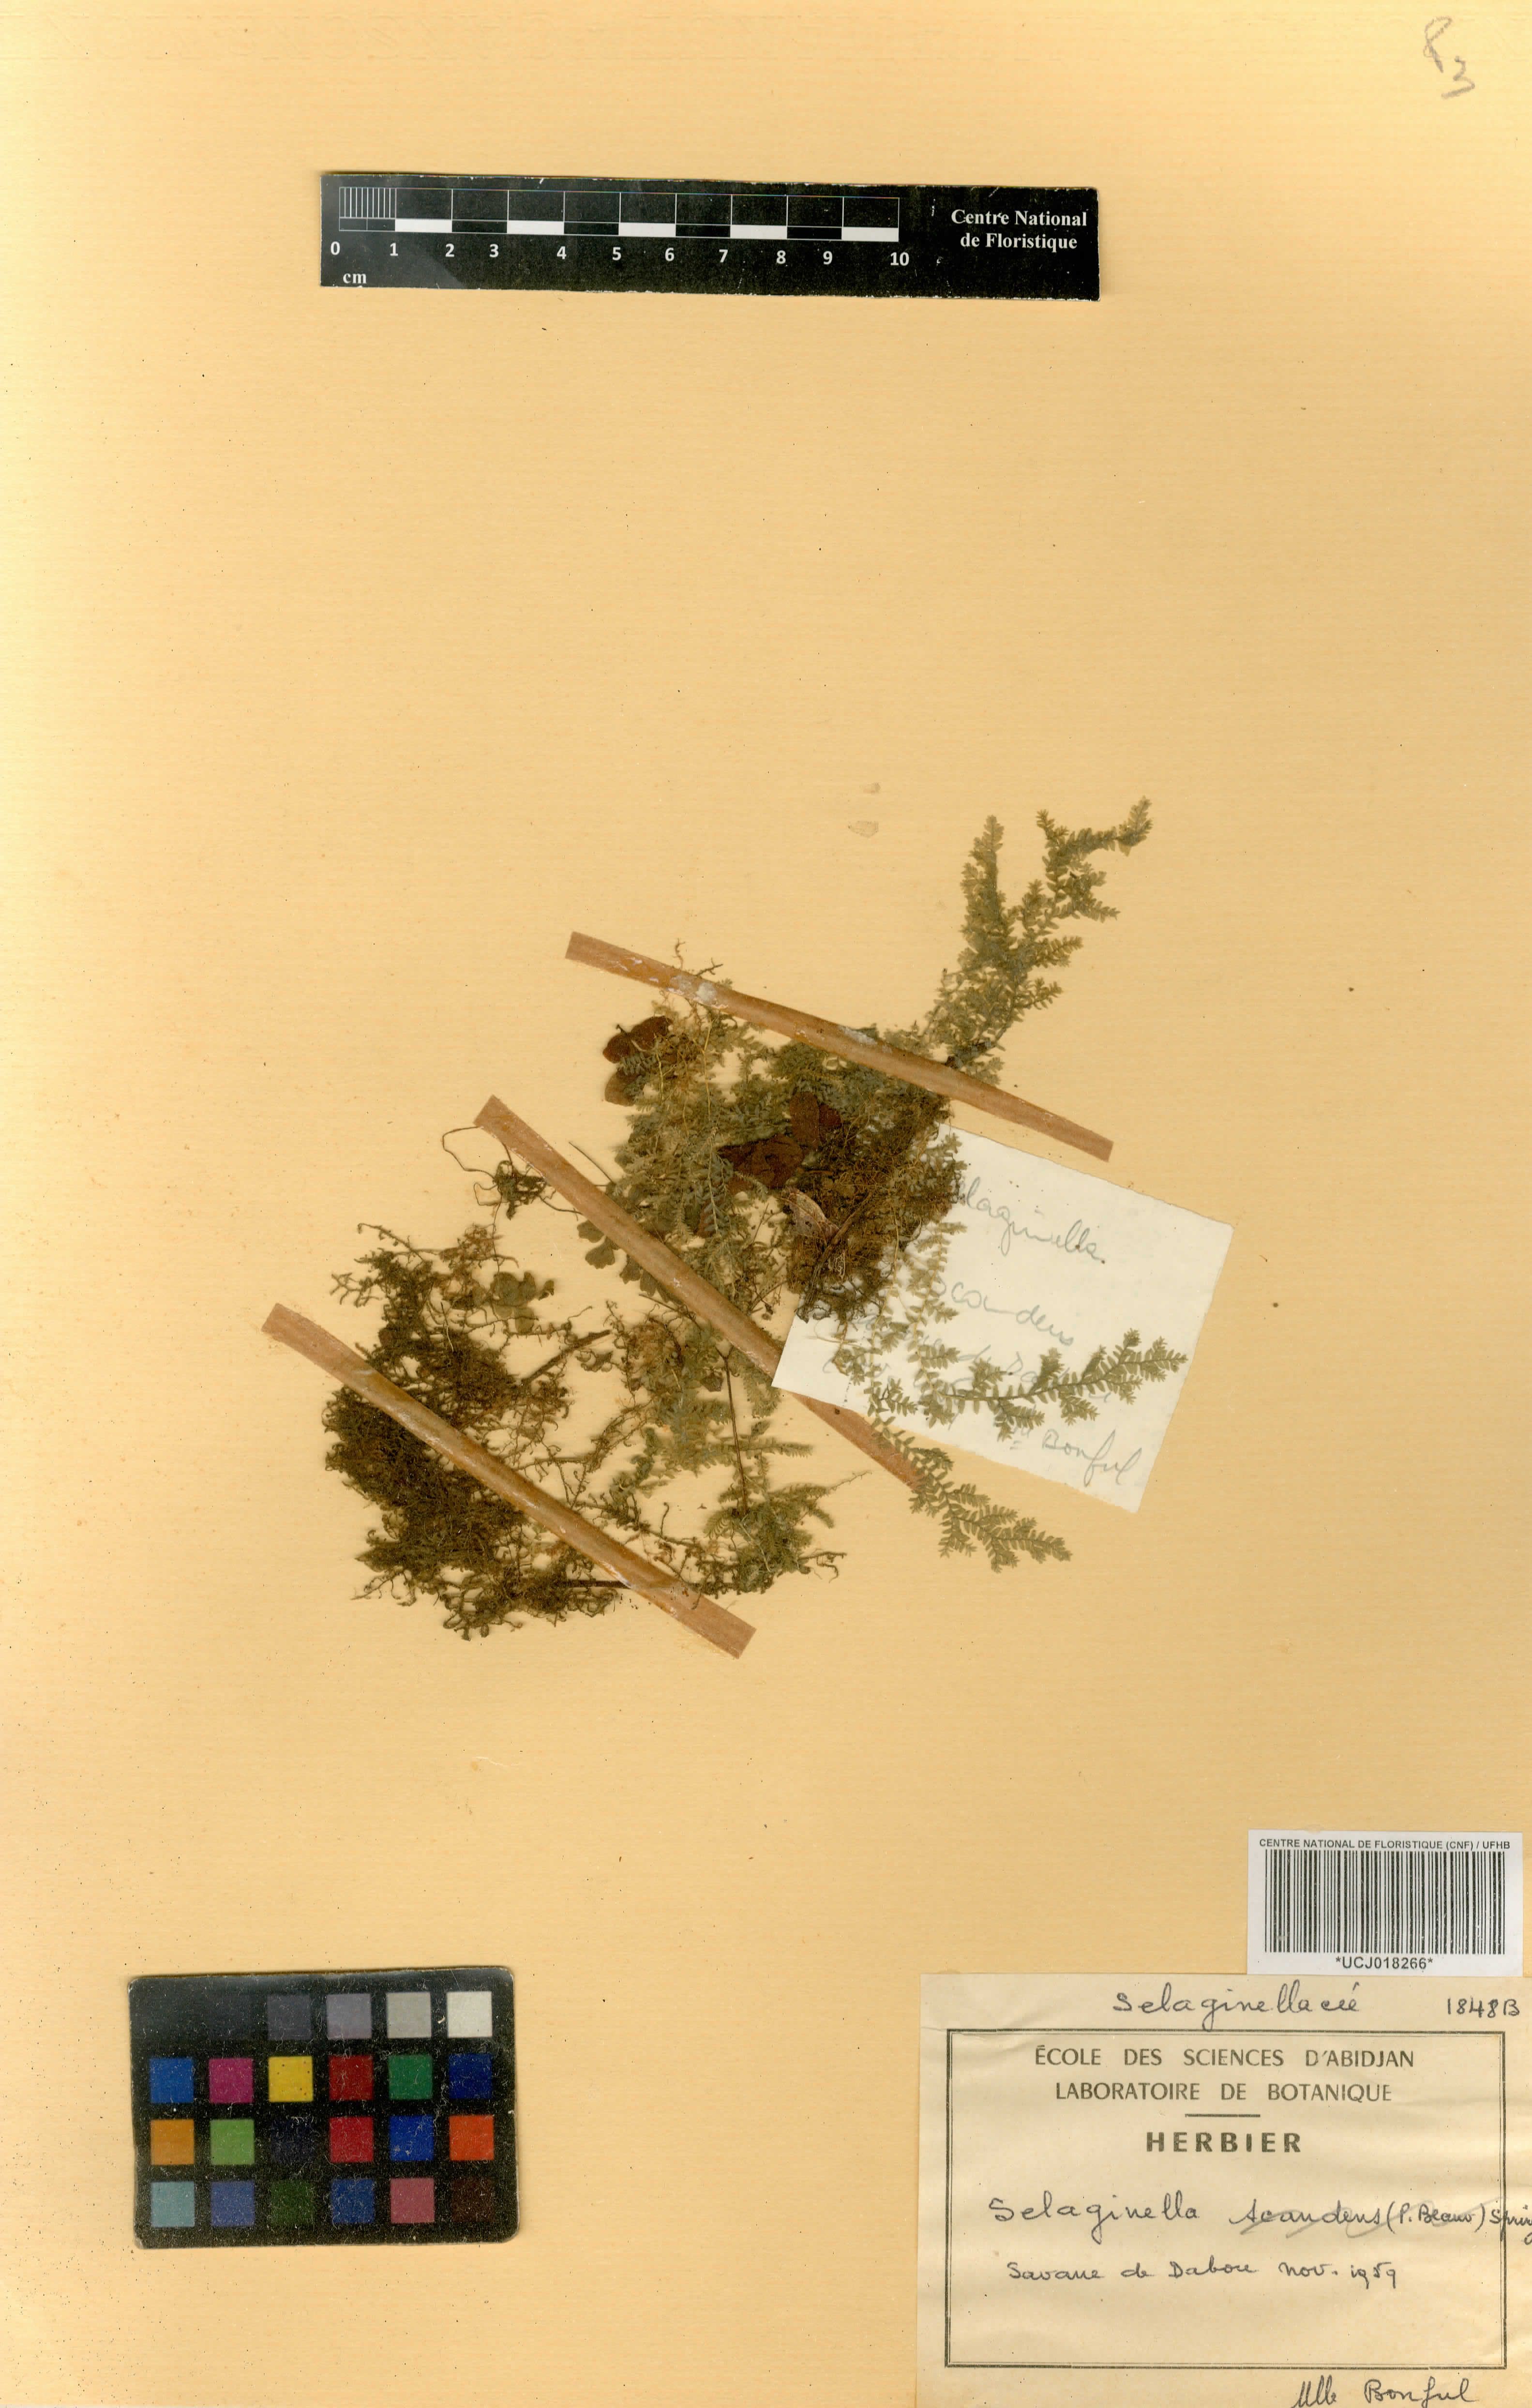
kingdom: Plantae
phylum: Tracheophyta
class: Lycopodiopsida
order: Selaginellales
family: Selaginellaceae
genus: Selaginella
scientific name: Selaginella molliceps
